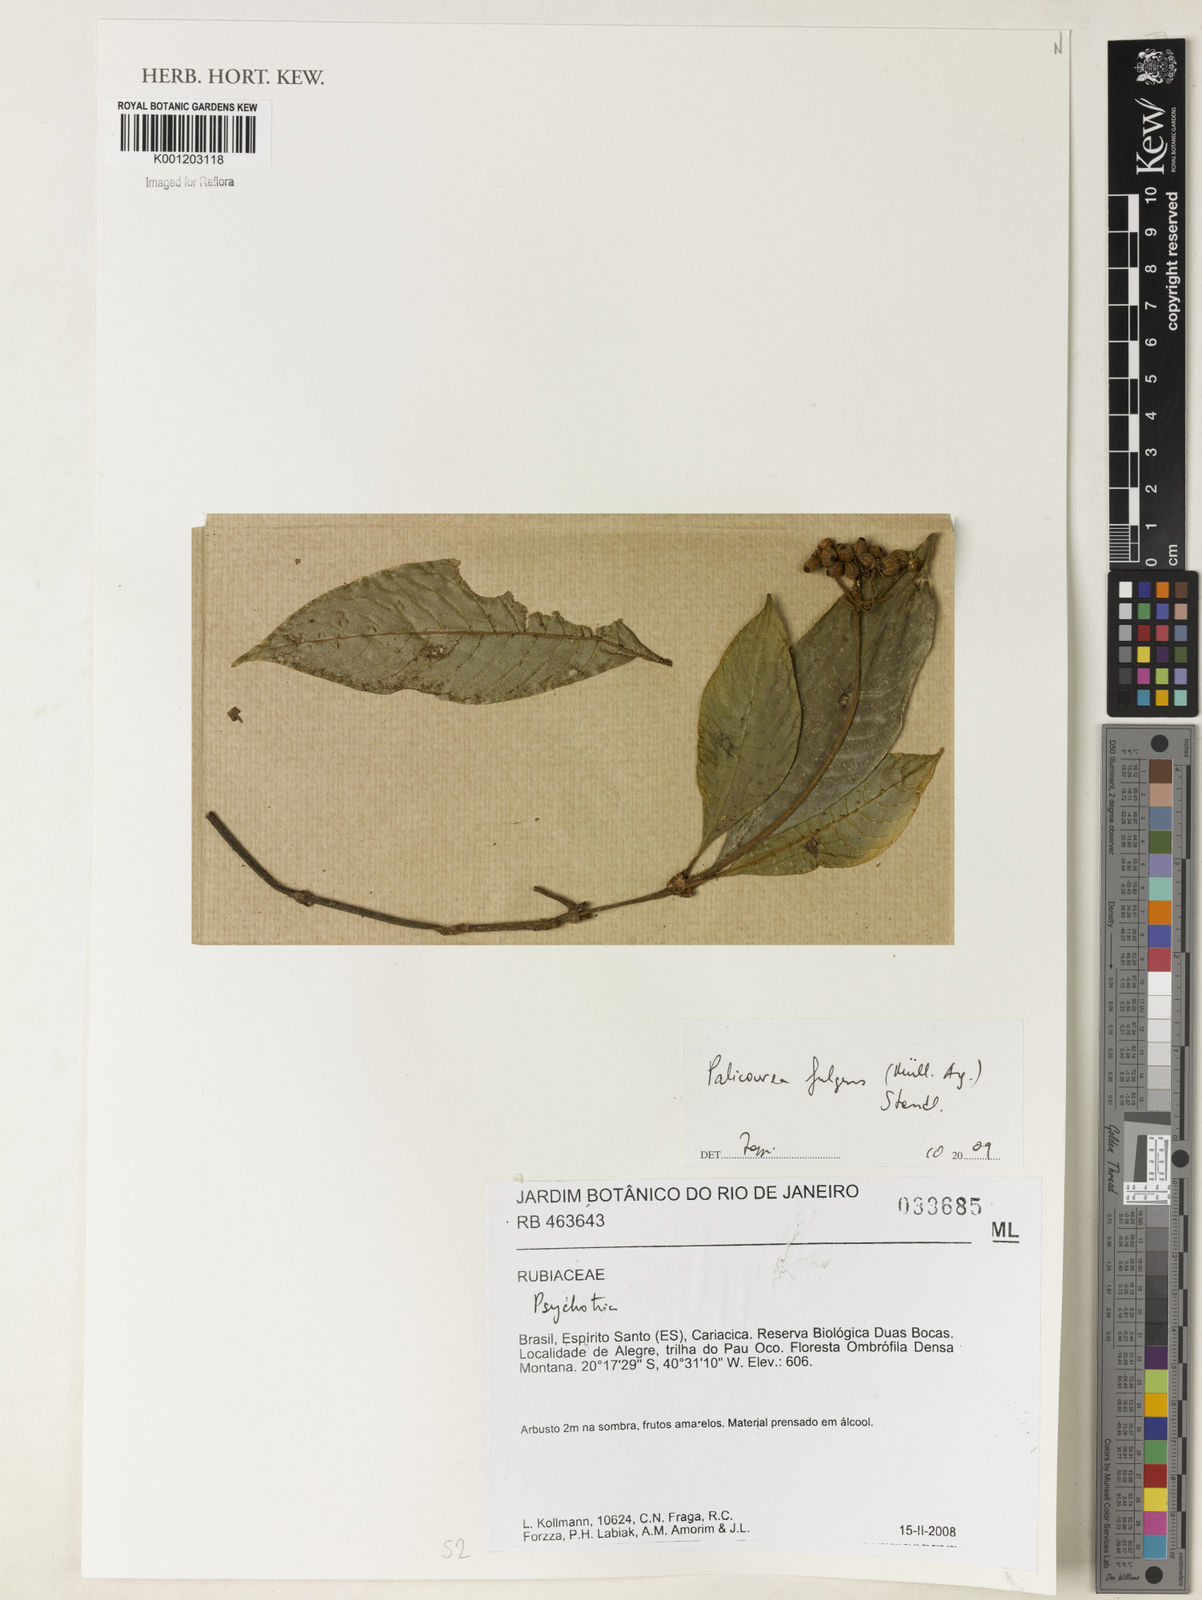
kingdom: Plantae
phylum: Tracheophyta
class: Magnoliopsida
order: Gentianales
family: Rubiaceae
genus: Palicourea
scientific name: Palicourea
